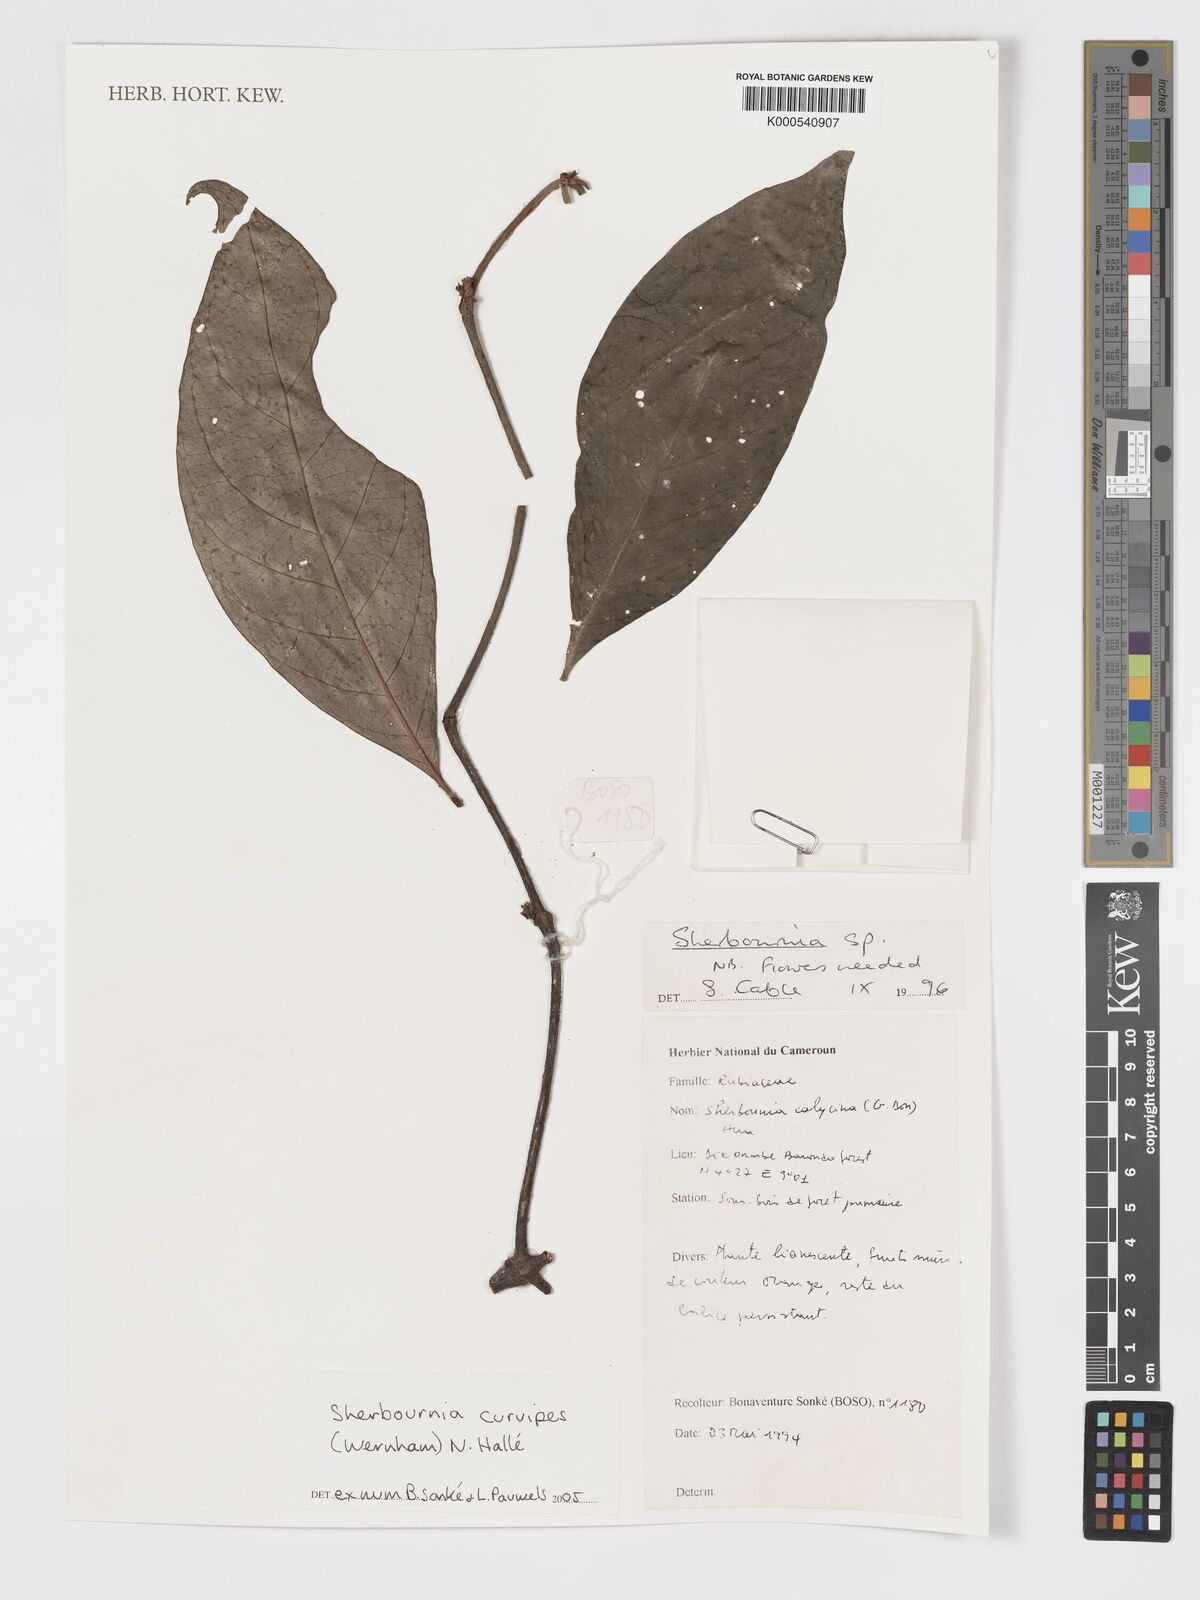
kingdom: Plantae
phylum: Tracheophyta
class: Magnoliopsida
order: Gentianales
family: Rubiaceae
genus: Sherbournia
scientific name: Sherbournia
